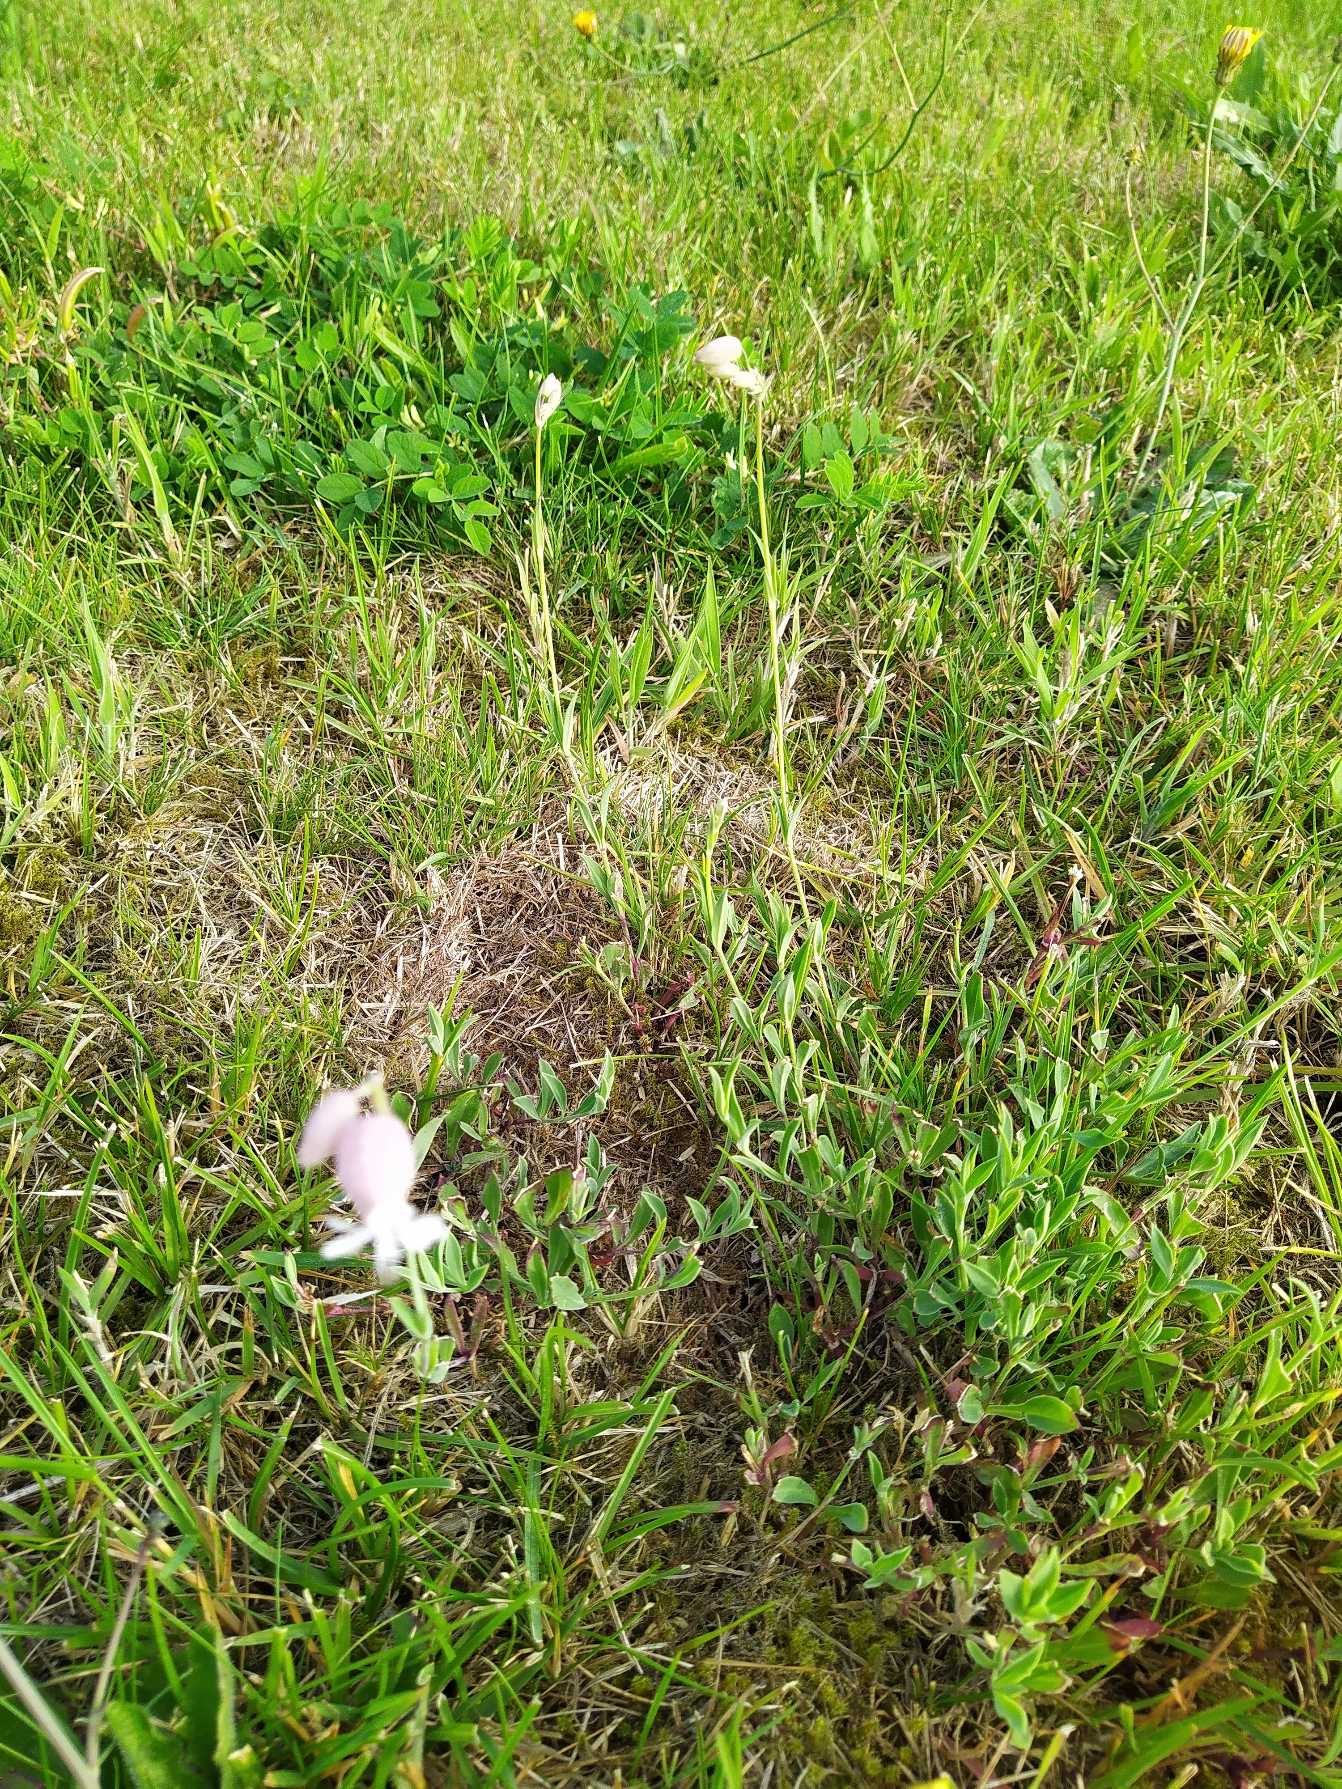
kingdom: Plantae
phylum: Tracheophyta
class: Magnoliopsida
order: Caryophyllales
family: Caryophyllaceae
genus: Silene
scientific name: Silene vulgaris
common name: Blæresmælde
